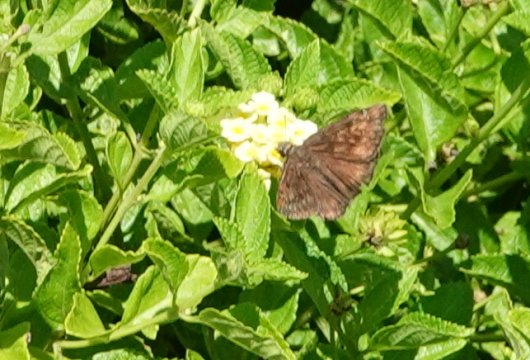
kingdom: Animalia
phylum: Arthropoda
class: Insecta
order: Lepidoptera
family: Hesperiidae
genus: Gesta
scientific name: Gesta
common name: Horace's Duskywing
